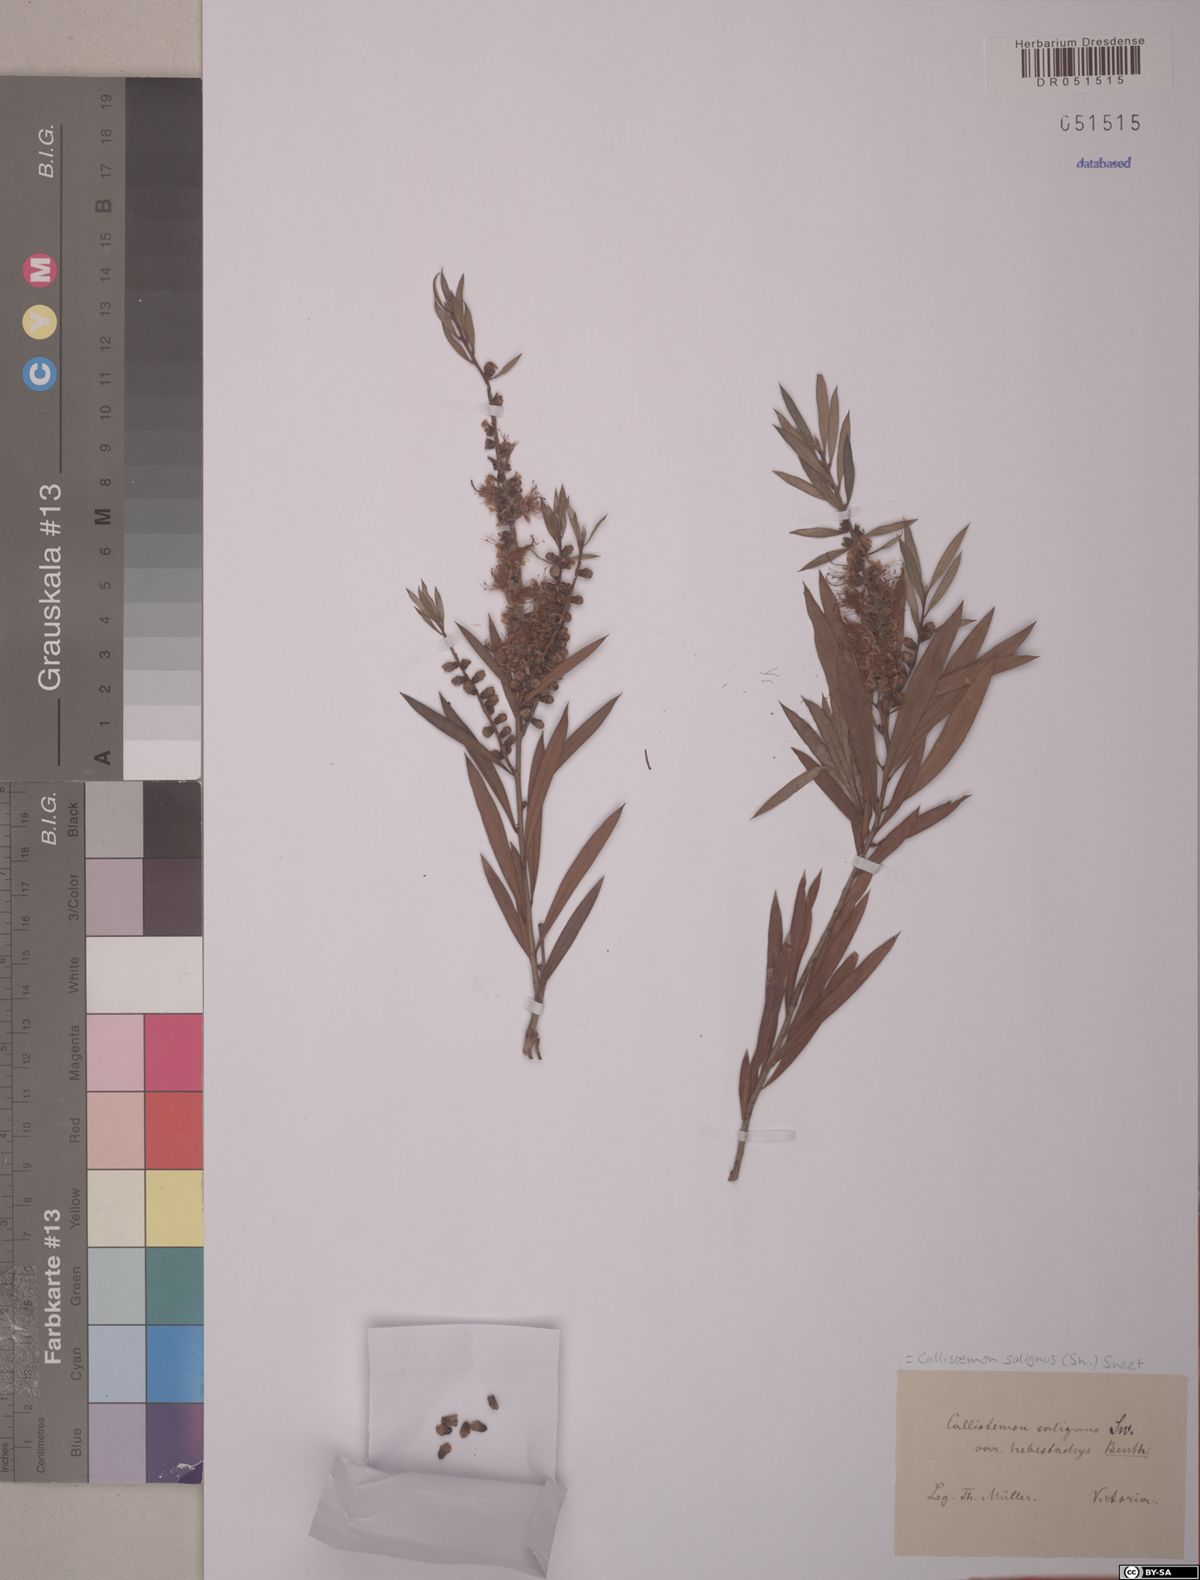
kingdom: Plantae
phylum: Tracheophyta
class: Magnoliopsida
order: Myrtales
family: Myrtaceae
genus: Callistemon
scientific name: Callistemon salignus
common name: White bottlebrush
